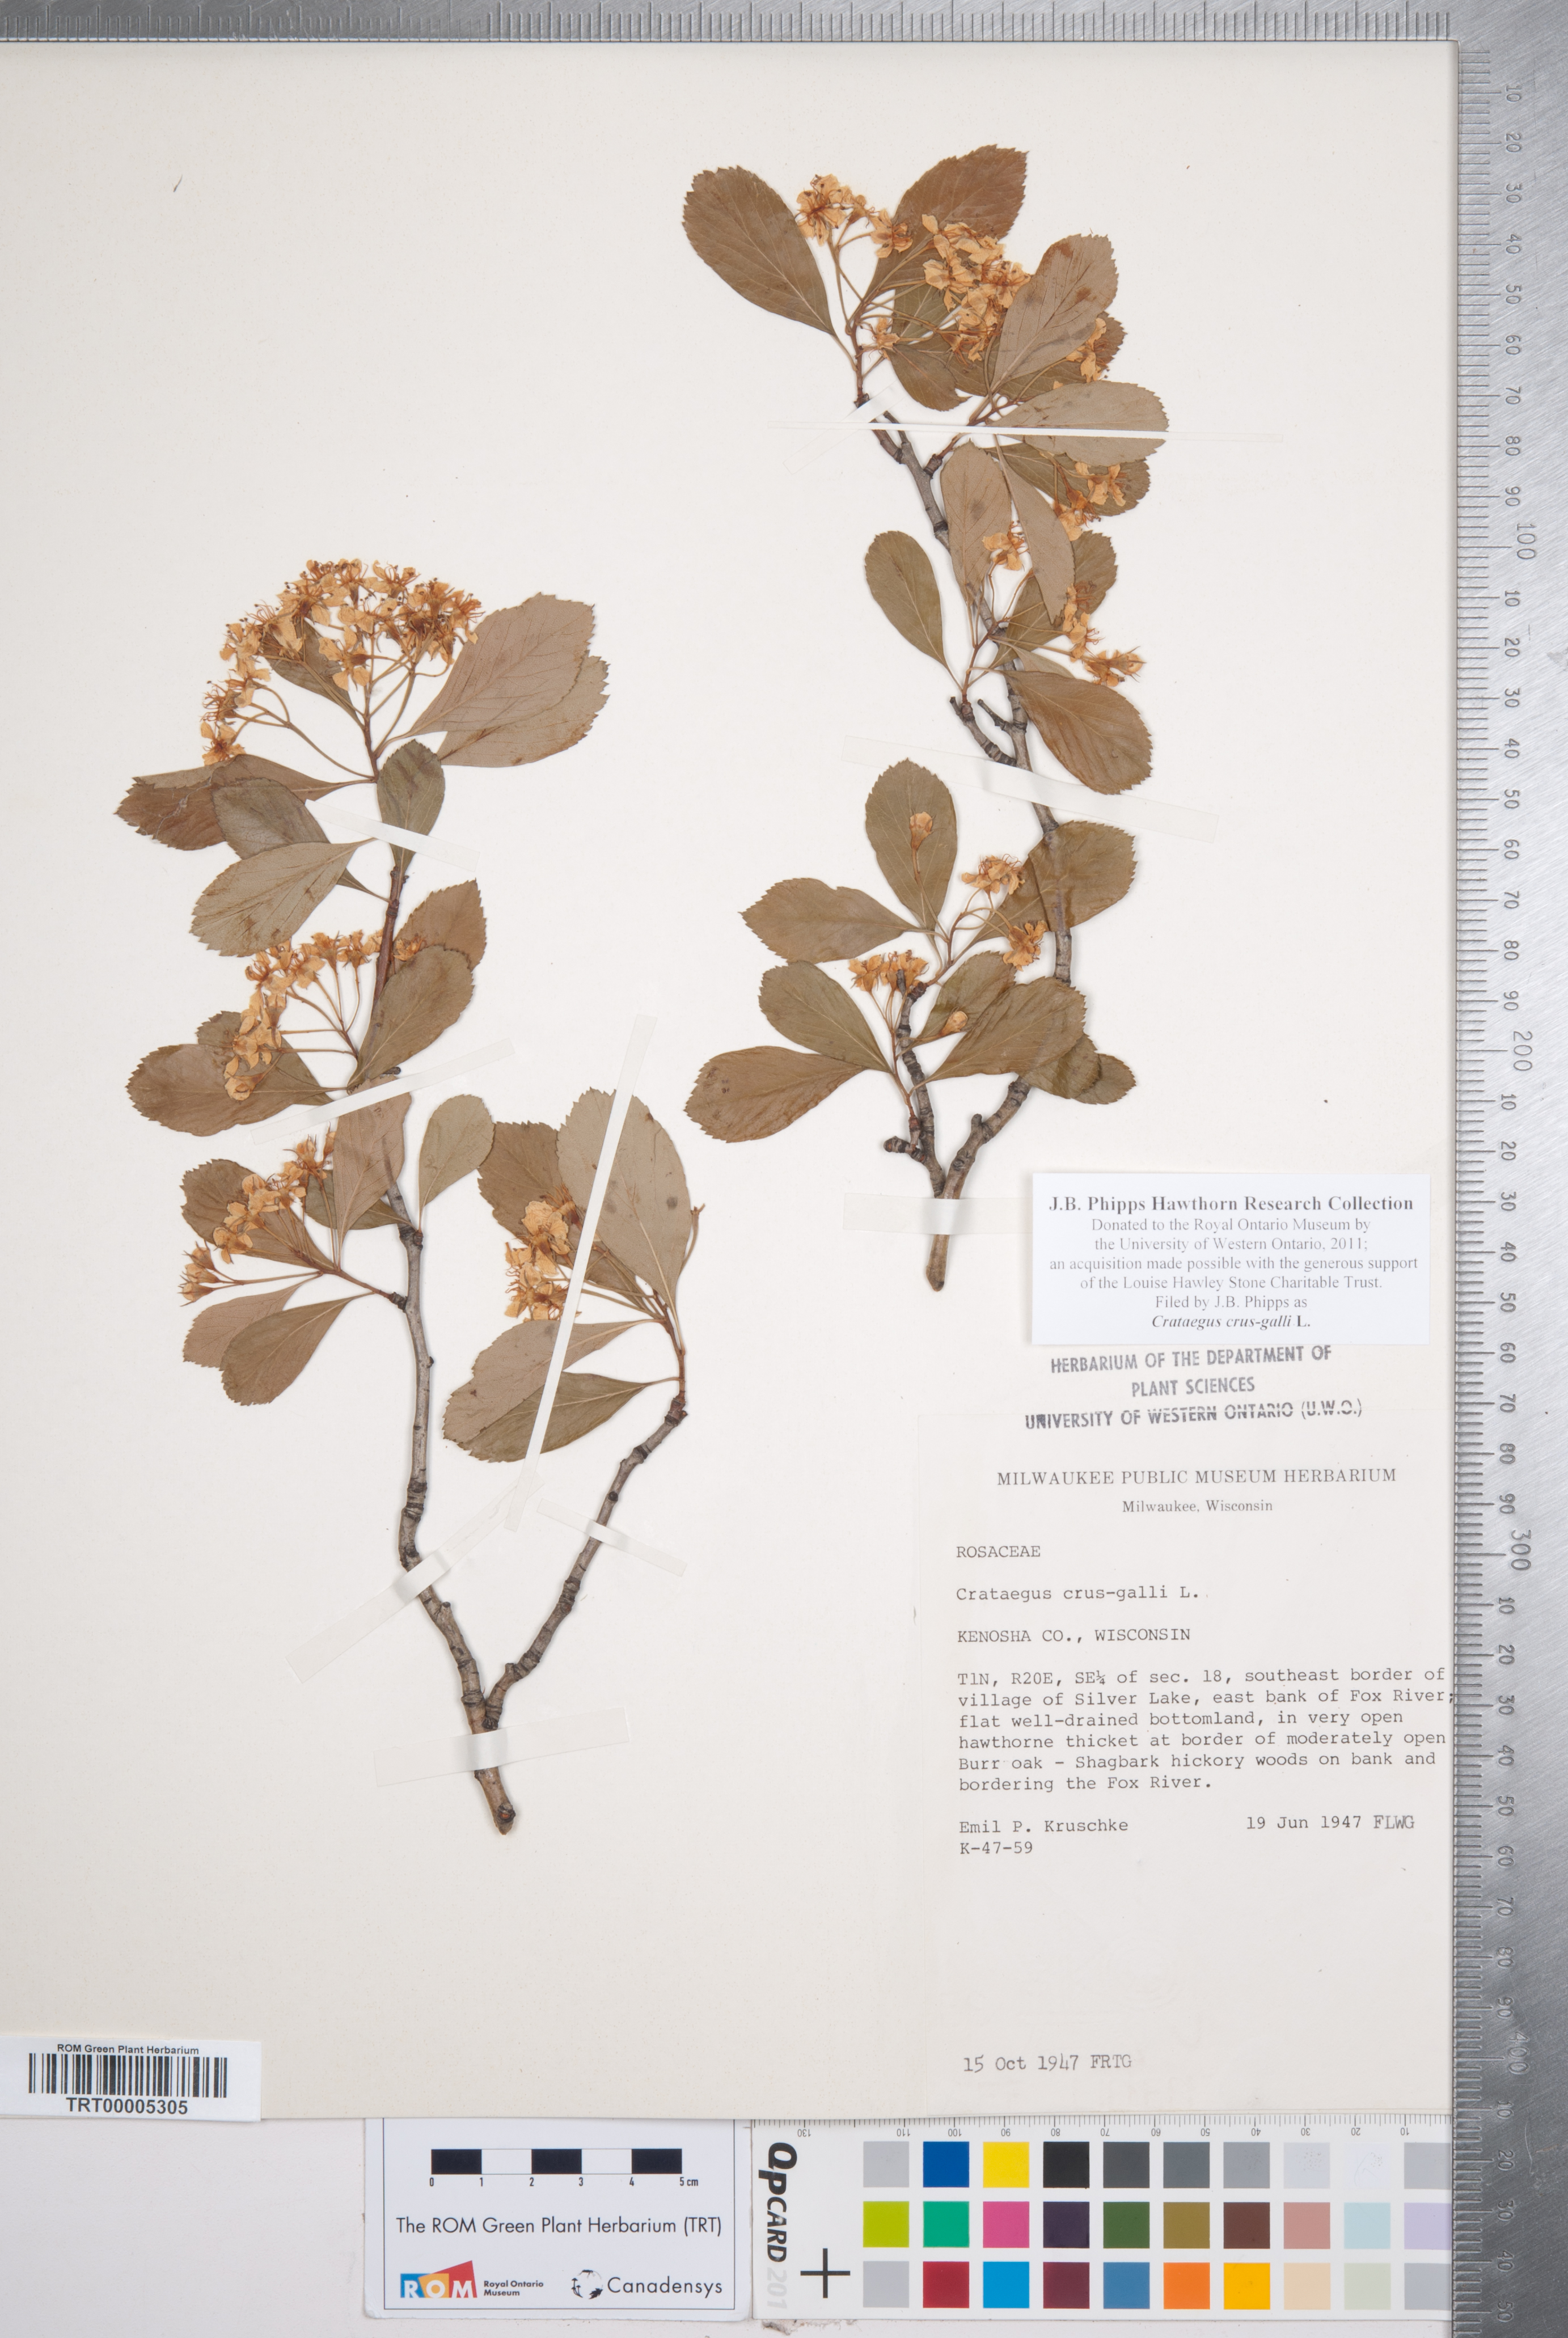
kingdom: Plantae
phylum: Tracheophyta
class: Magnoliopsida
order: Rosales
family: Rosaceae
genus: Crataegus
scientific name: Crataegus crus-galli
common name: Cockspurthorn
